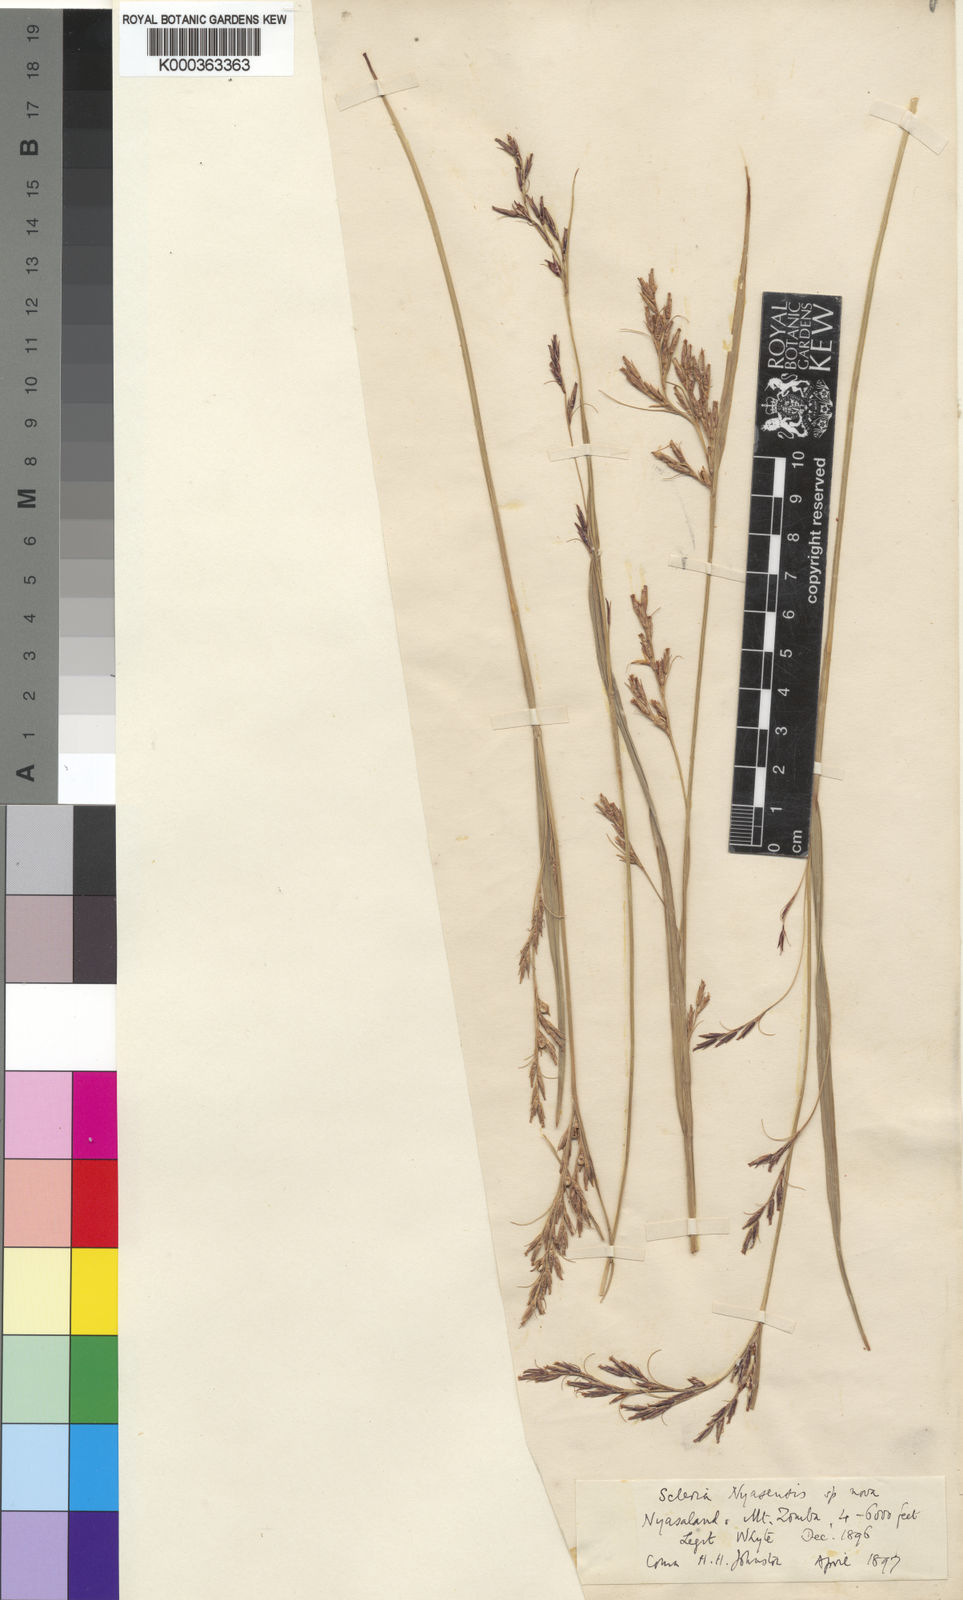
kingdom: Plantae
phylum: Tracheophyta
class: Liliopsida
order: Poales
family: Cyperaceae
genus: Scleria
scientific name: Scleria nyasensis
